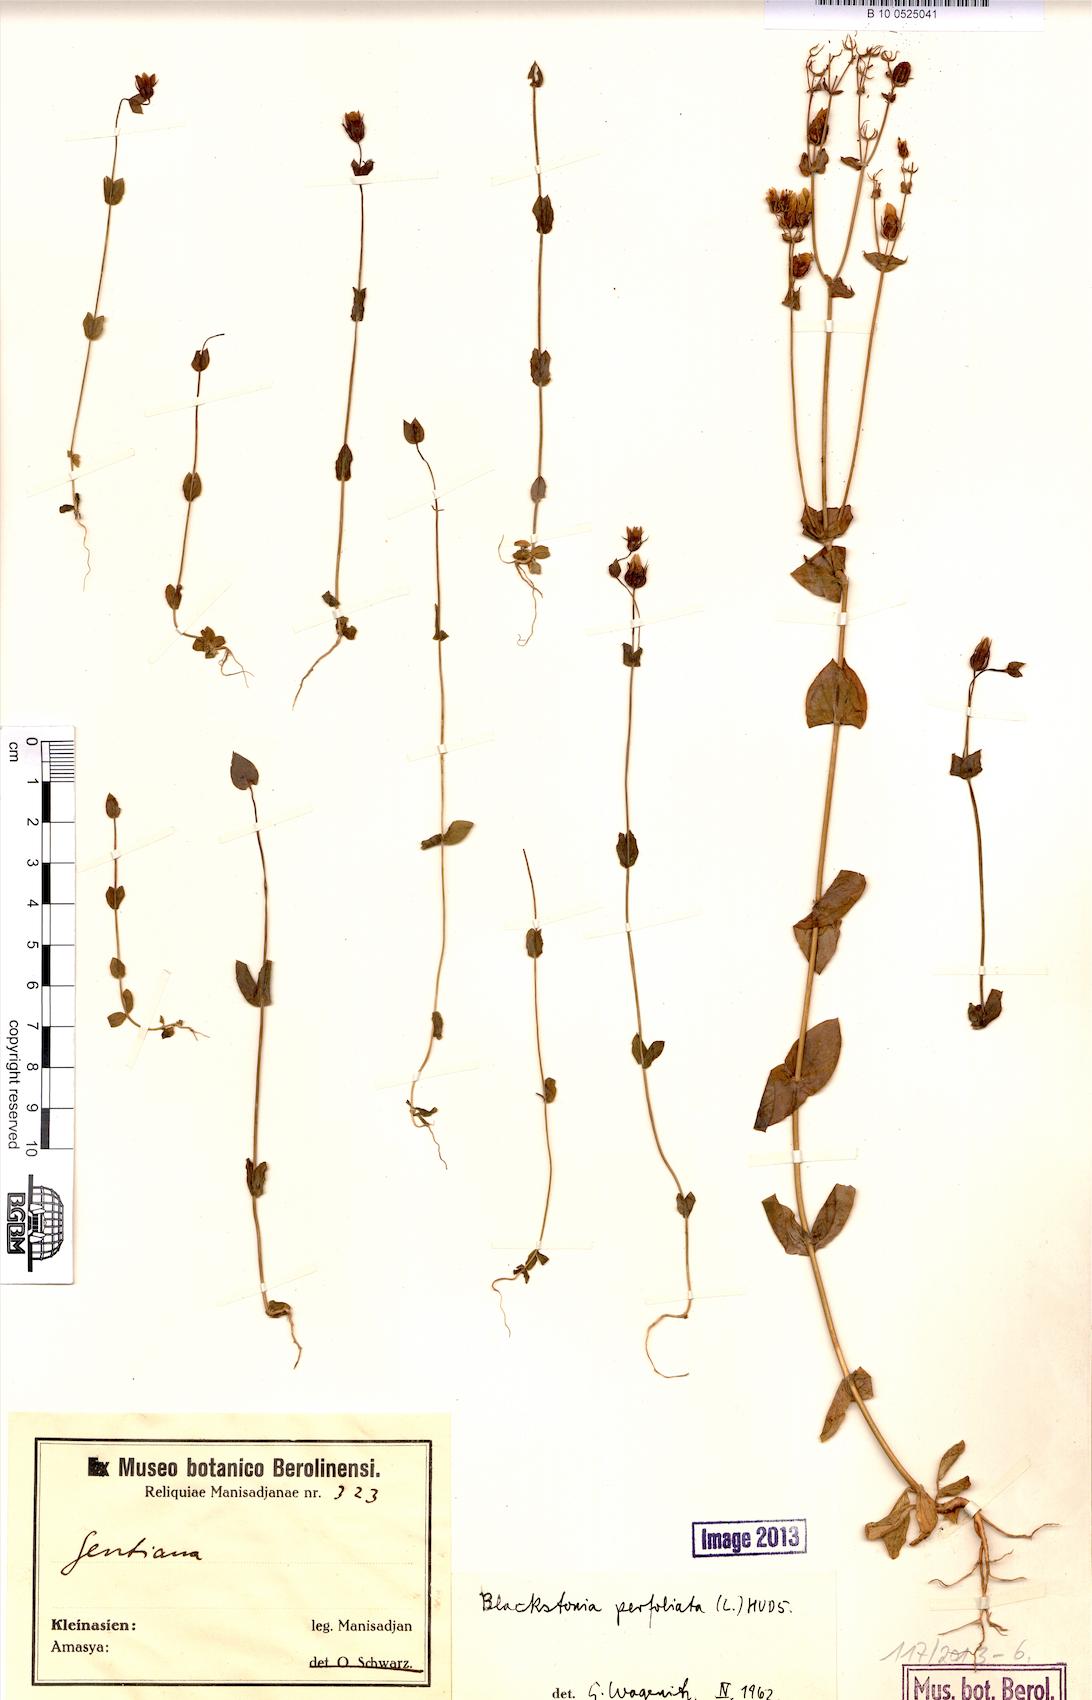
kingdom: Plantae
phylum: Tracheophyta
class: Magnoliopsida
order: Gentianales
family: Gentianaceae
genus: Blackstonia
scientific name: Blackstonia Chlora perfoliata
